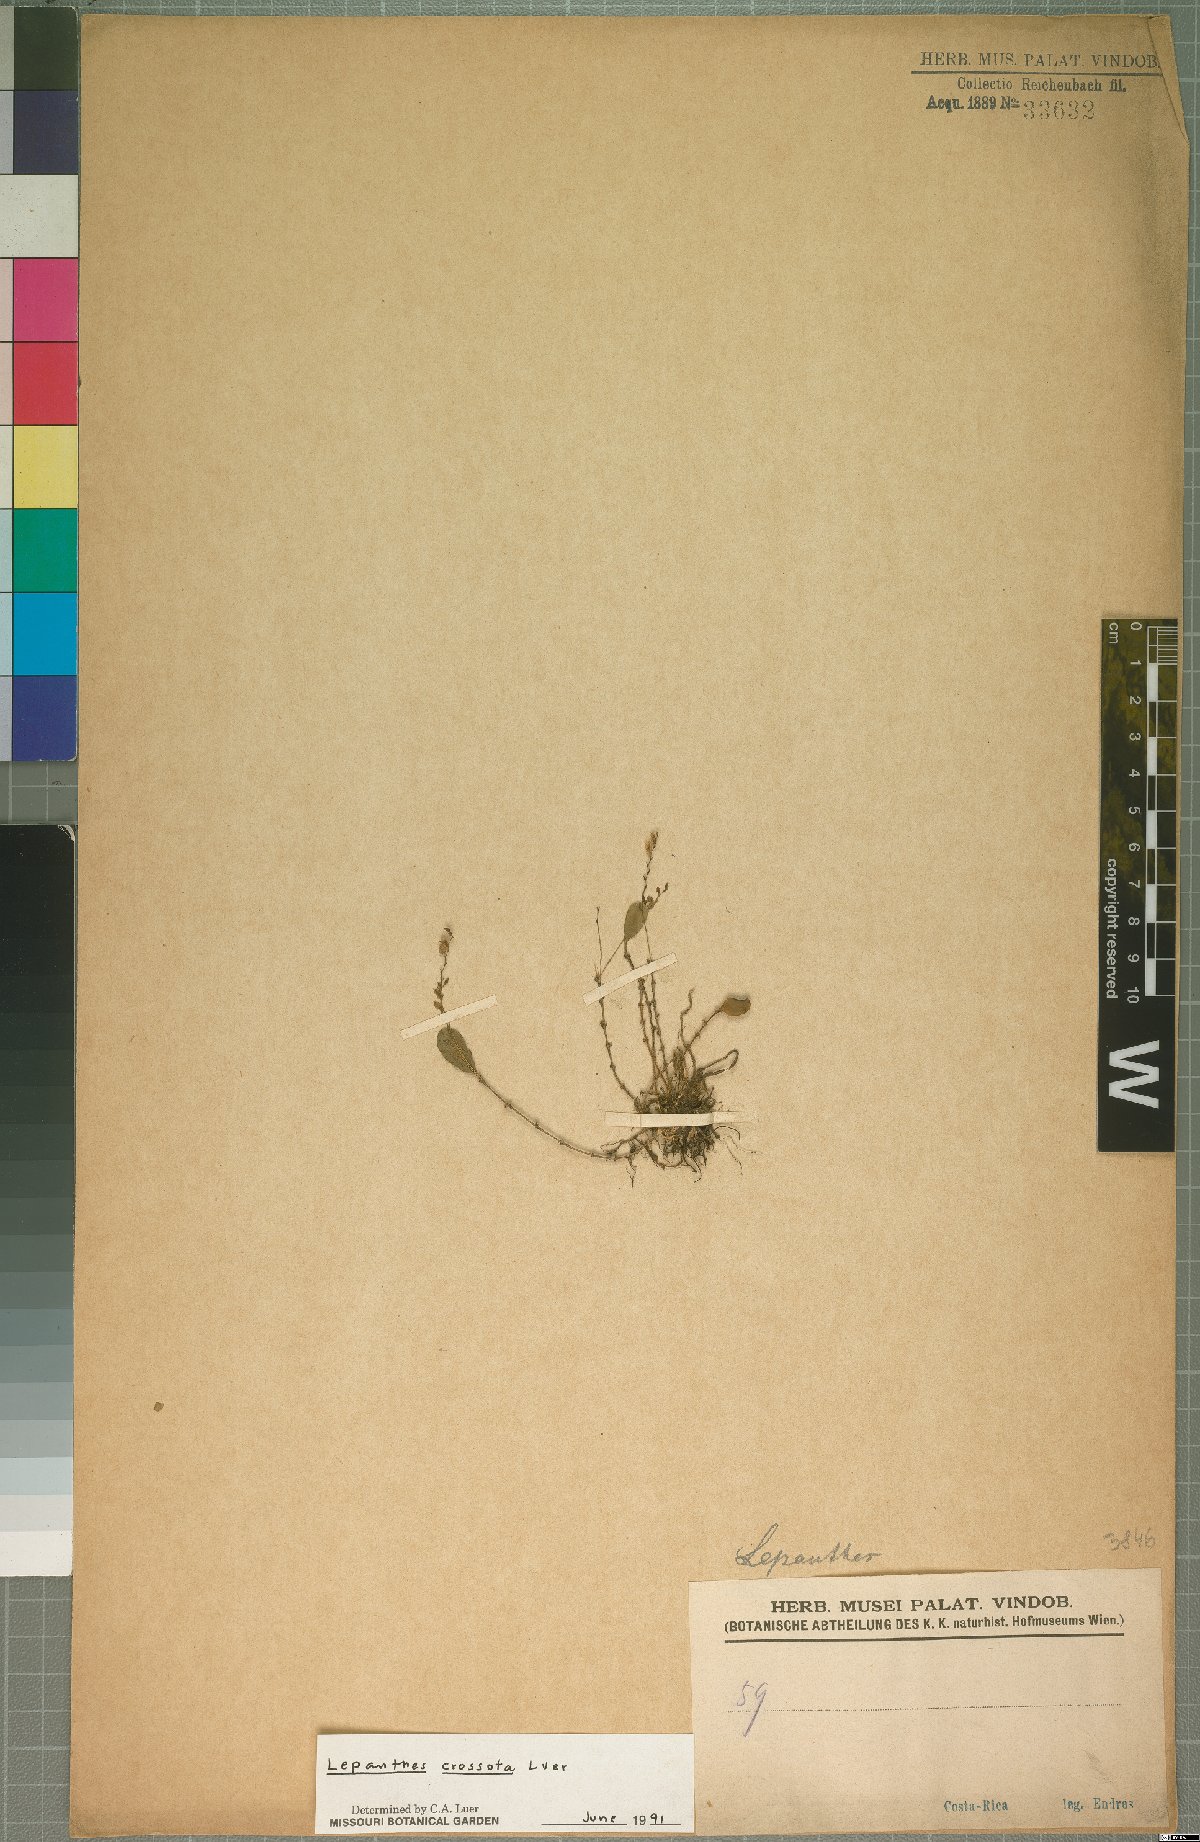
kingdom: Plantae
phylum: Tracheophyta
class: Liliopsida
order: Asparagales
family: Orchidaceae
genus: Lepanthes
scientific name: Lepanthes jimenezii
